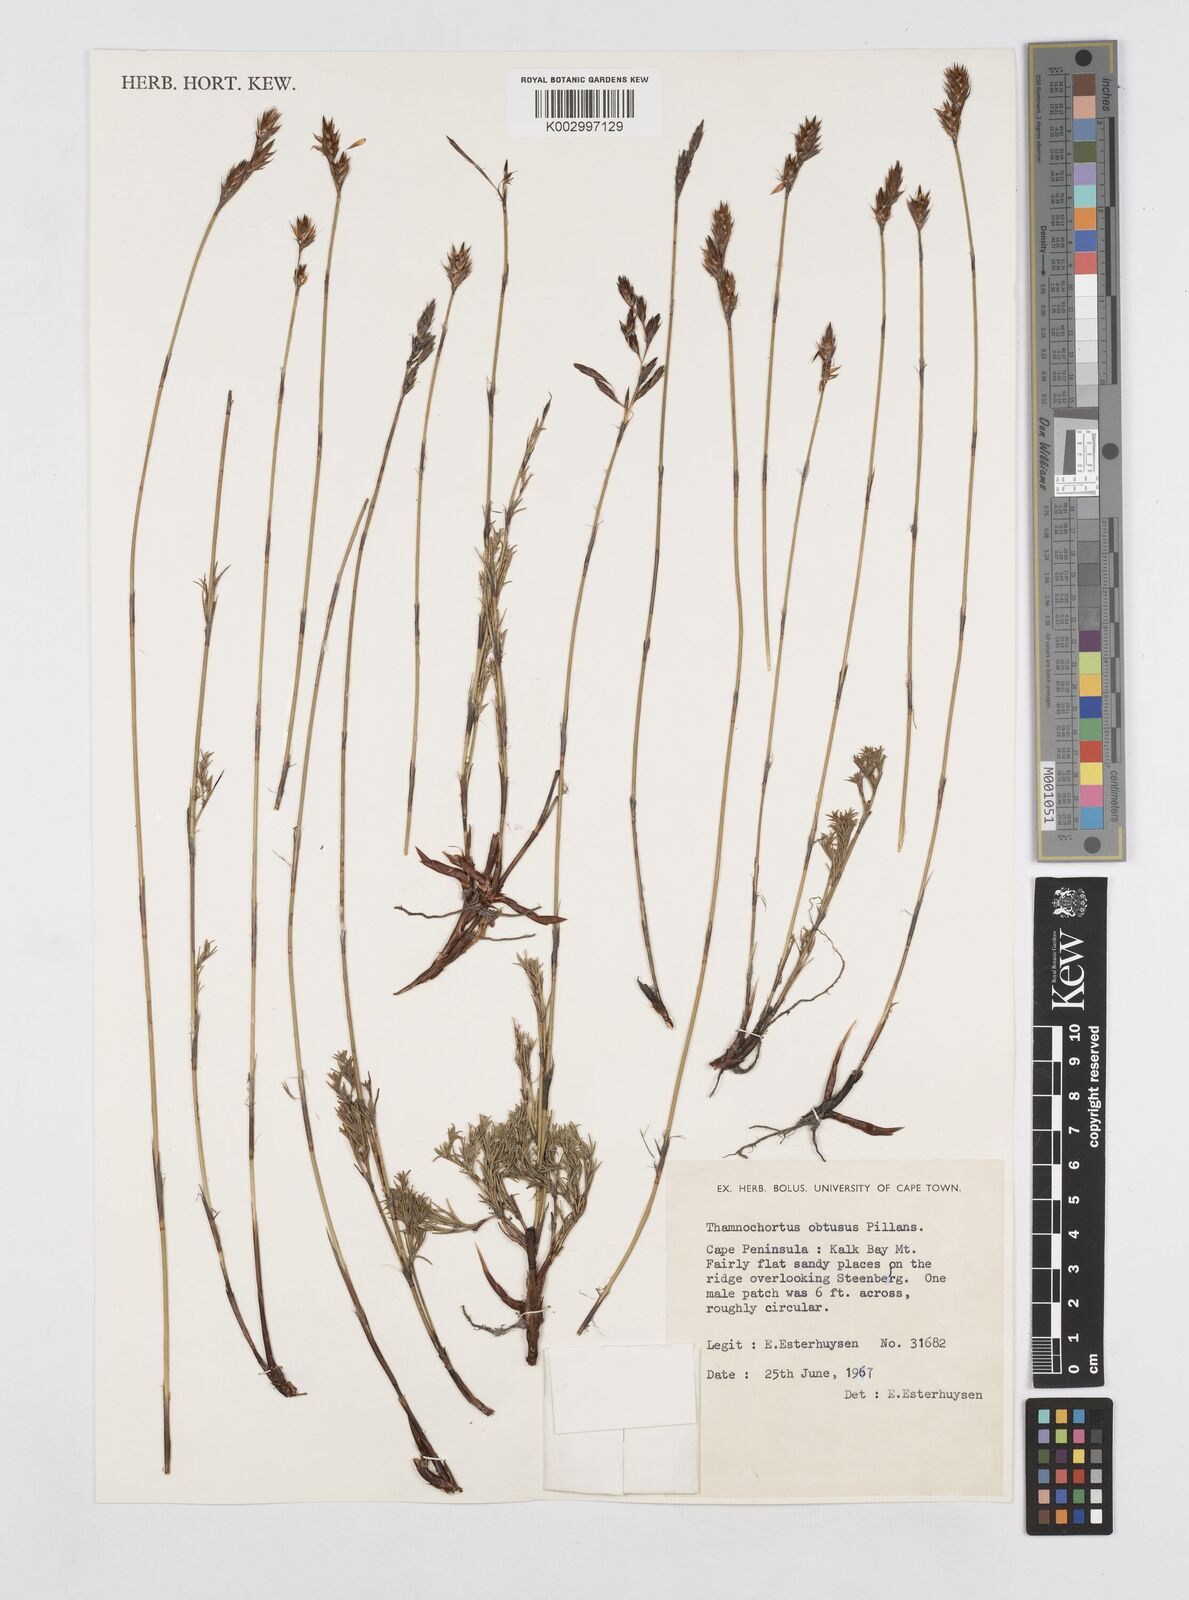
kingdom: Plantae
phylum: Tracheophyta
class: Liliopsida
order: Poales
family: Restionaceae
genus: Thamnochortus
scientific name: Thamnochortus obtusus
